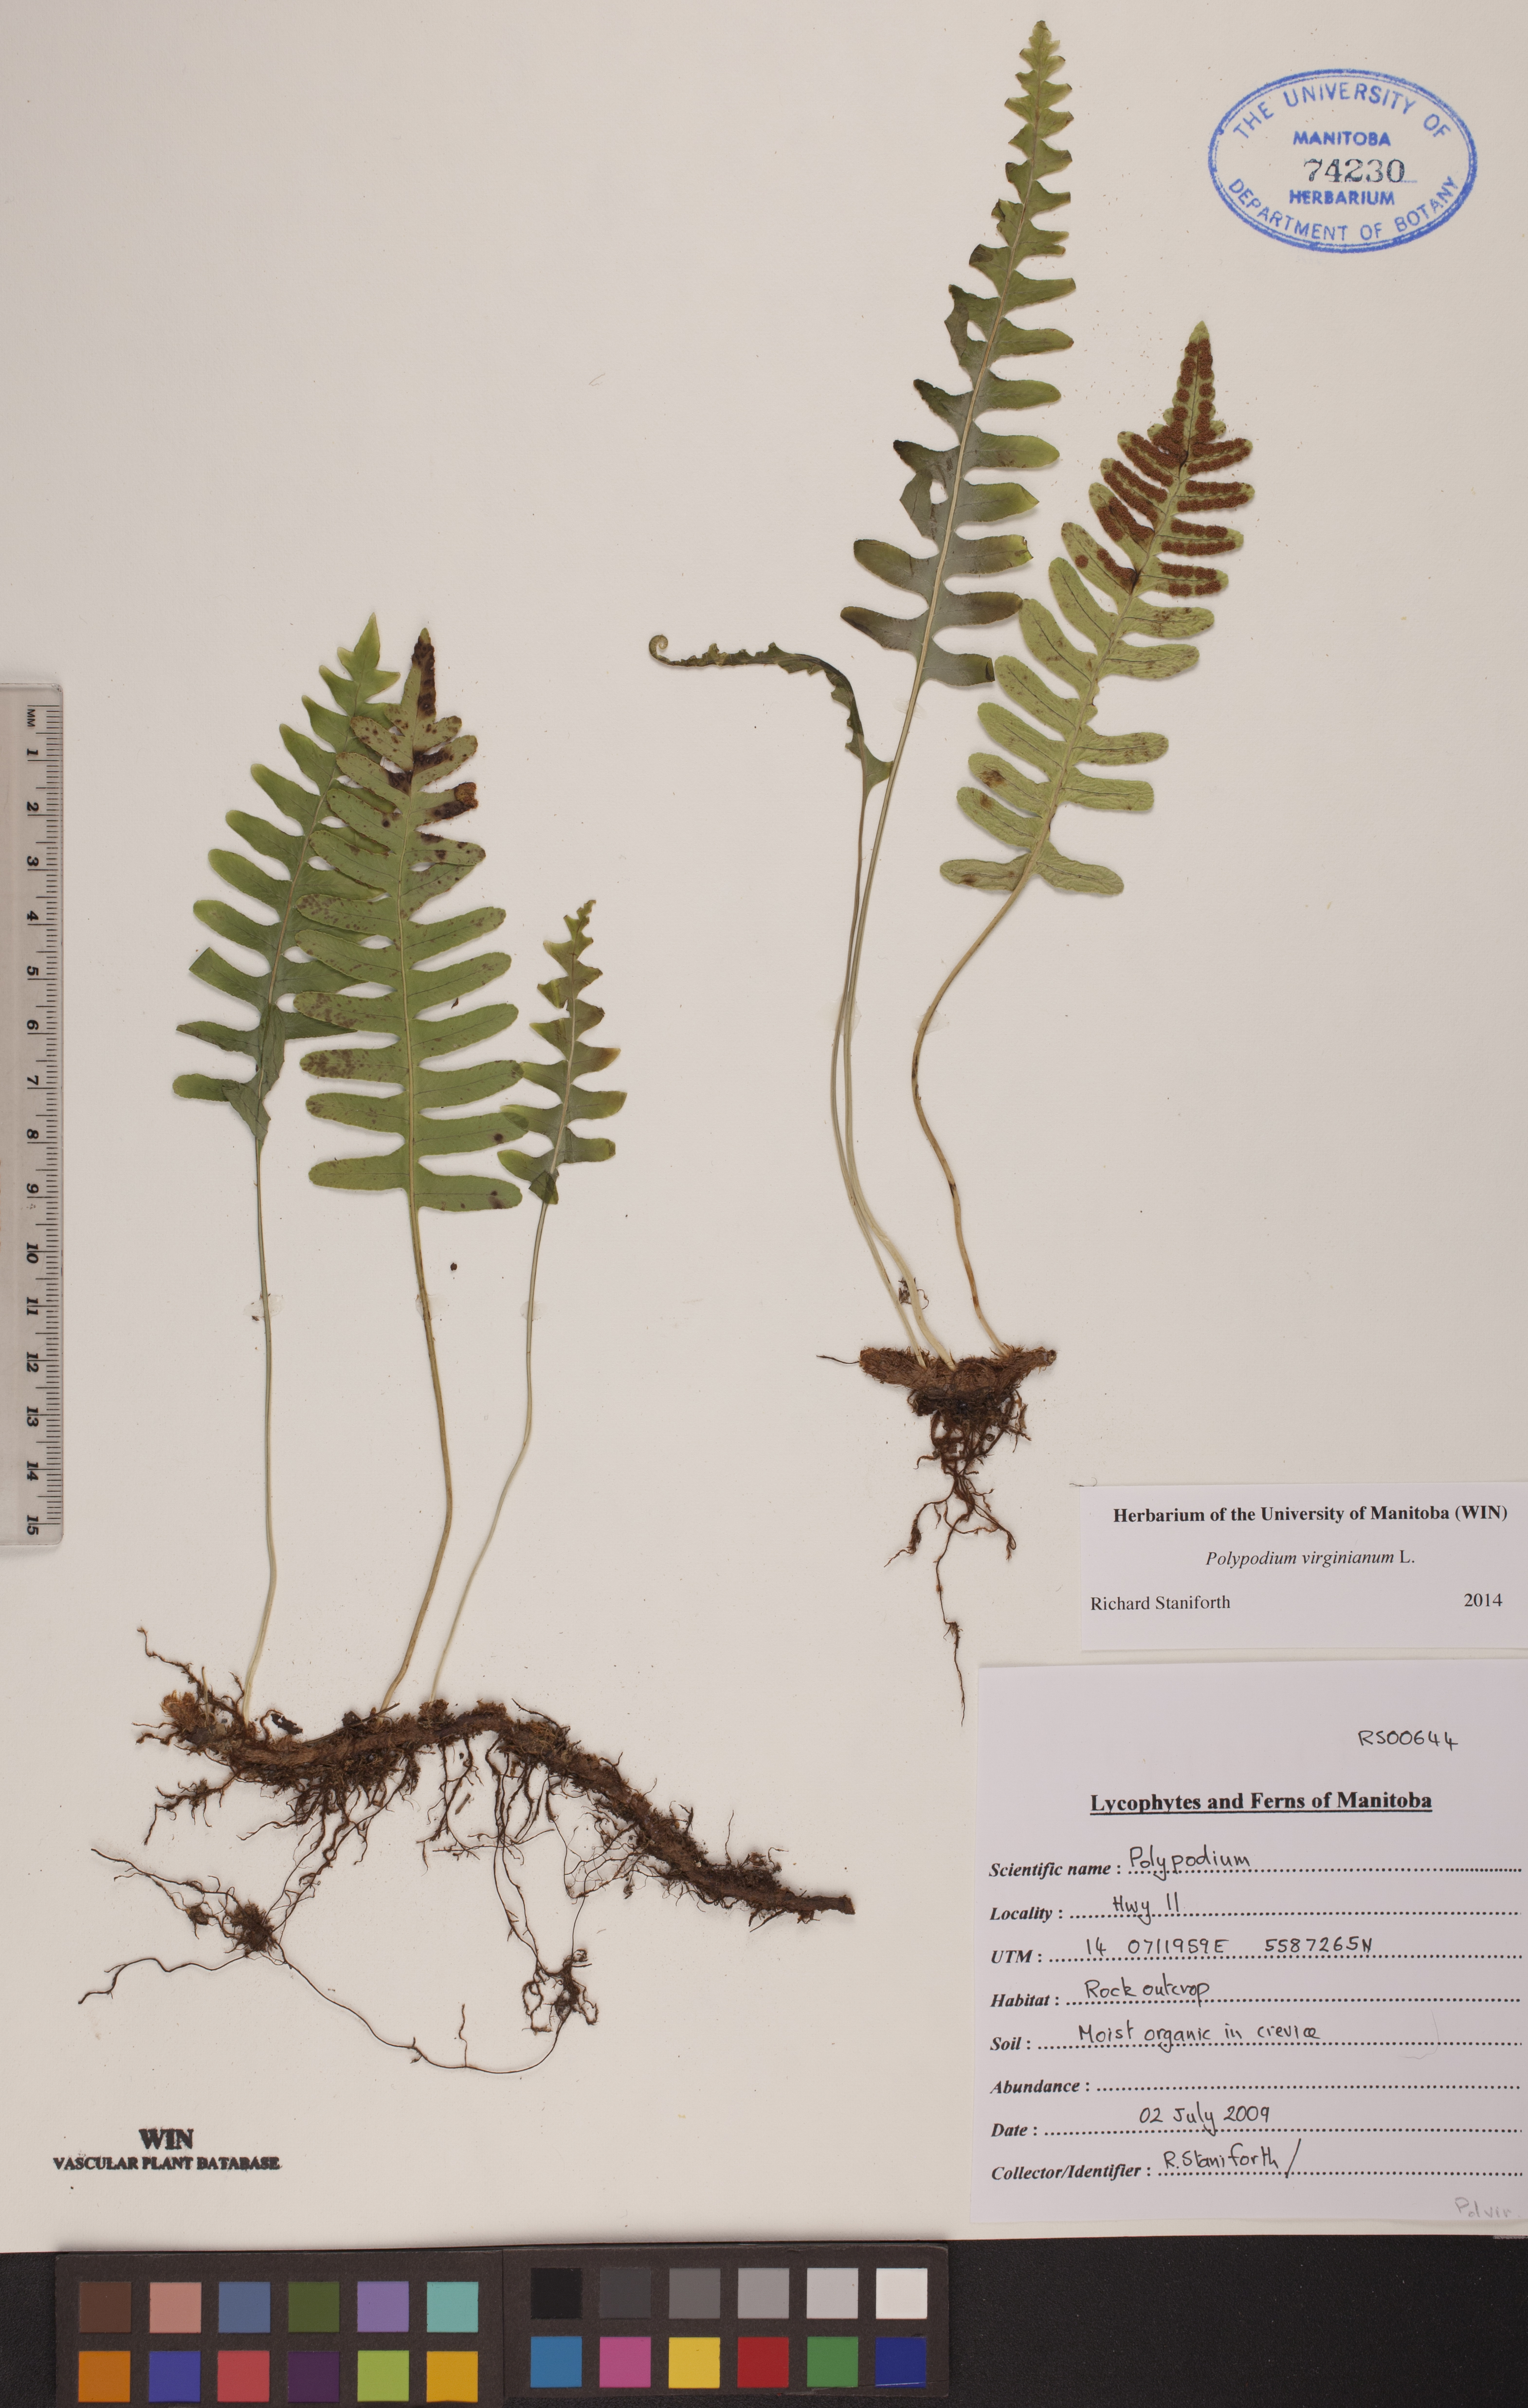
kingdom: Plantae
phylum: Tracheophyta
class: Polypodiopsida
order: Polypodiales
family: Polypodiaceae
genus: Polypodium
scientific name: Polypodium virginianum
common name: American wall fern
